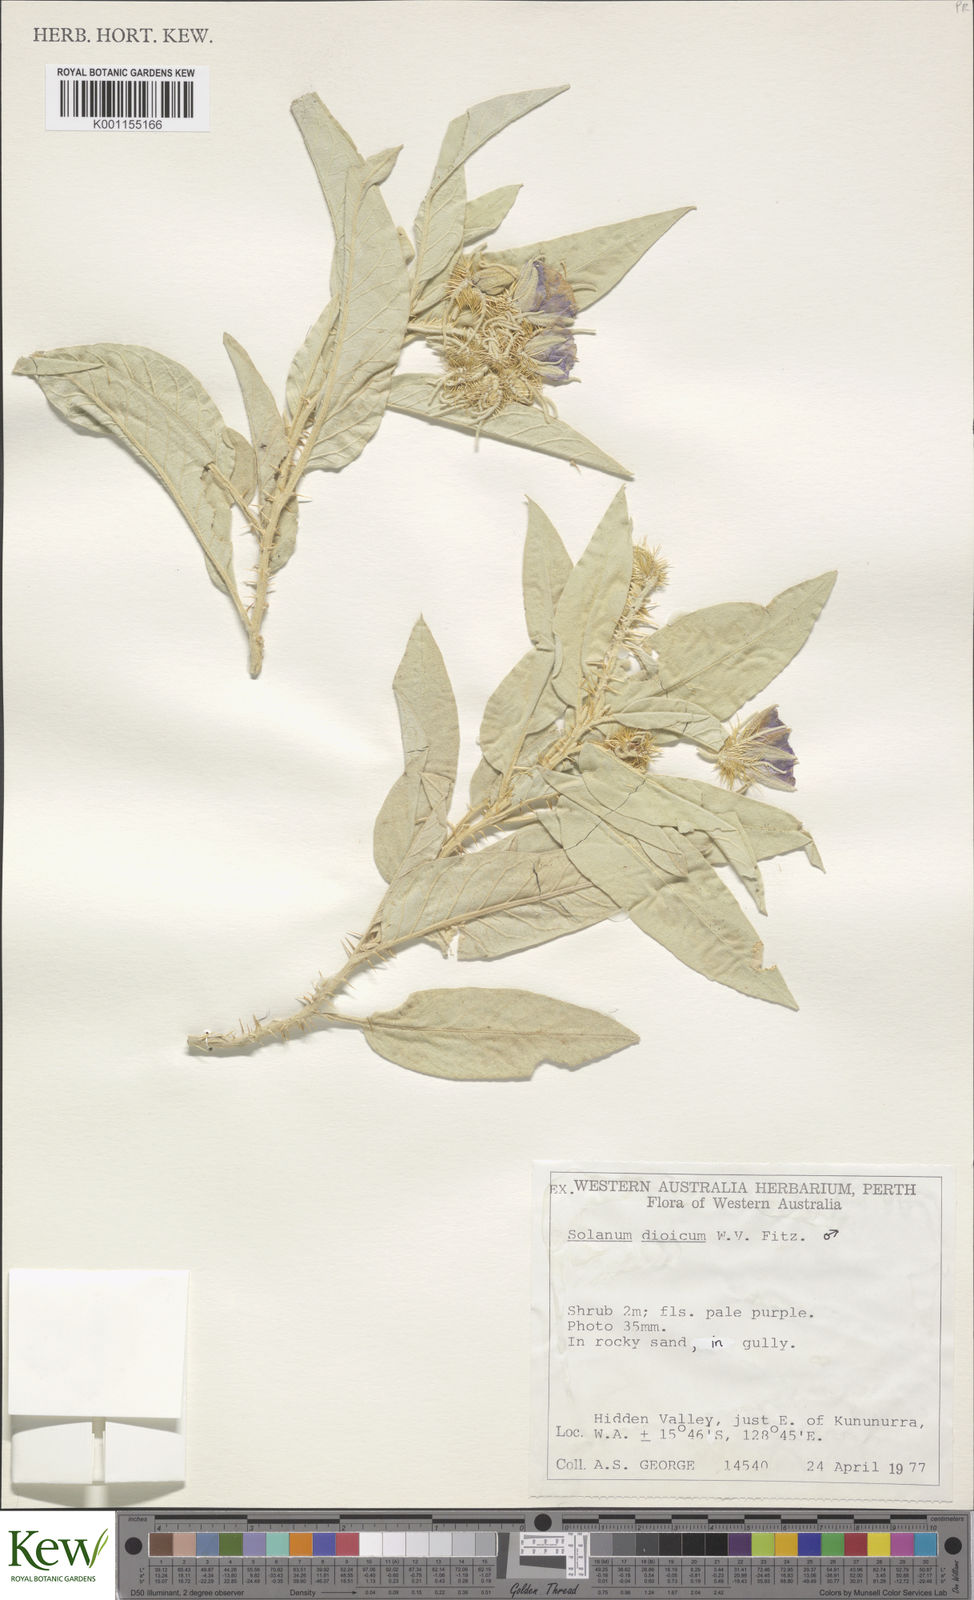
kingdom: Plantae
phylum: Tracheophyta
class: Magnoliopsida
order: Solanales
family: Solanaceae
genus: Solanum
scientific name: Solanum dioicum
